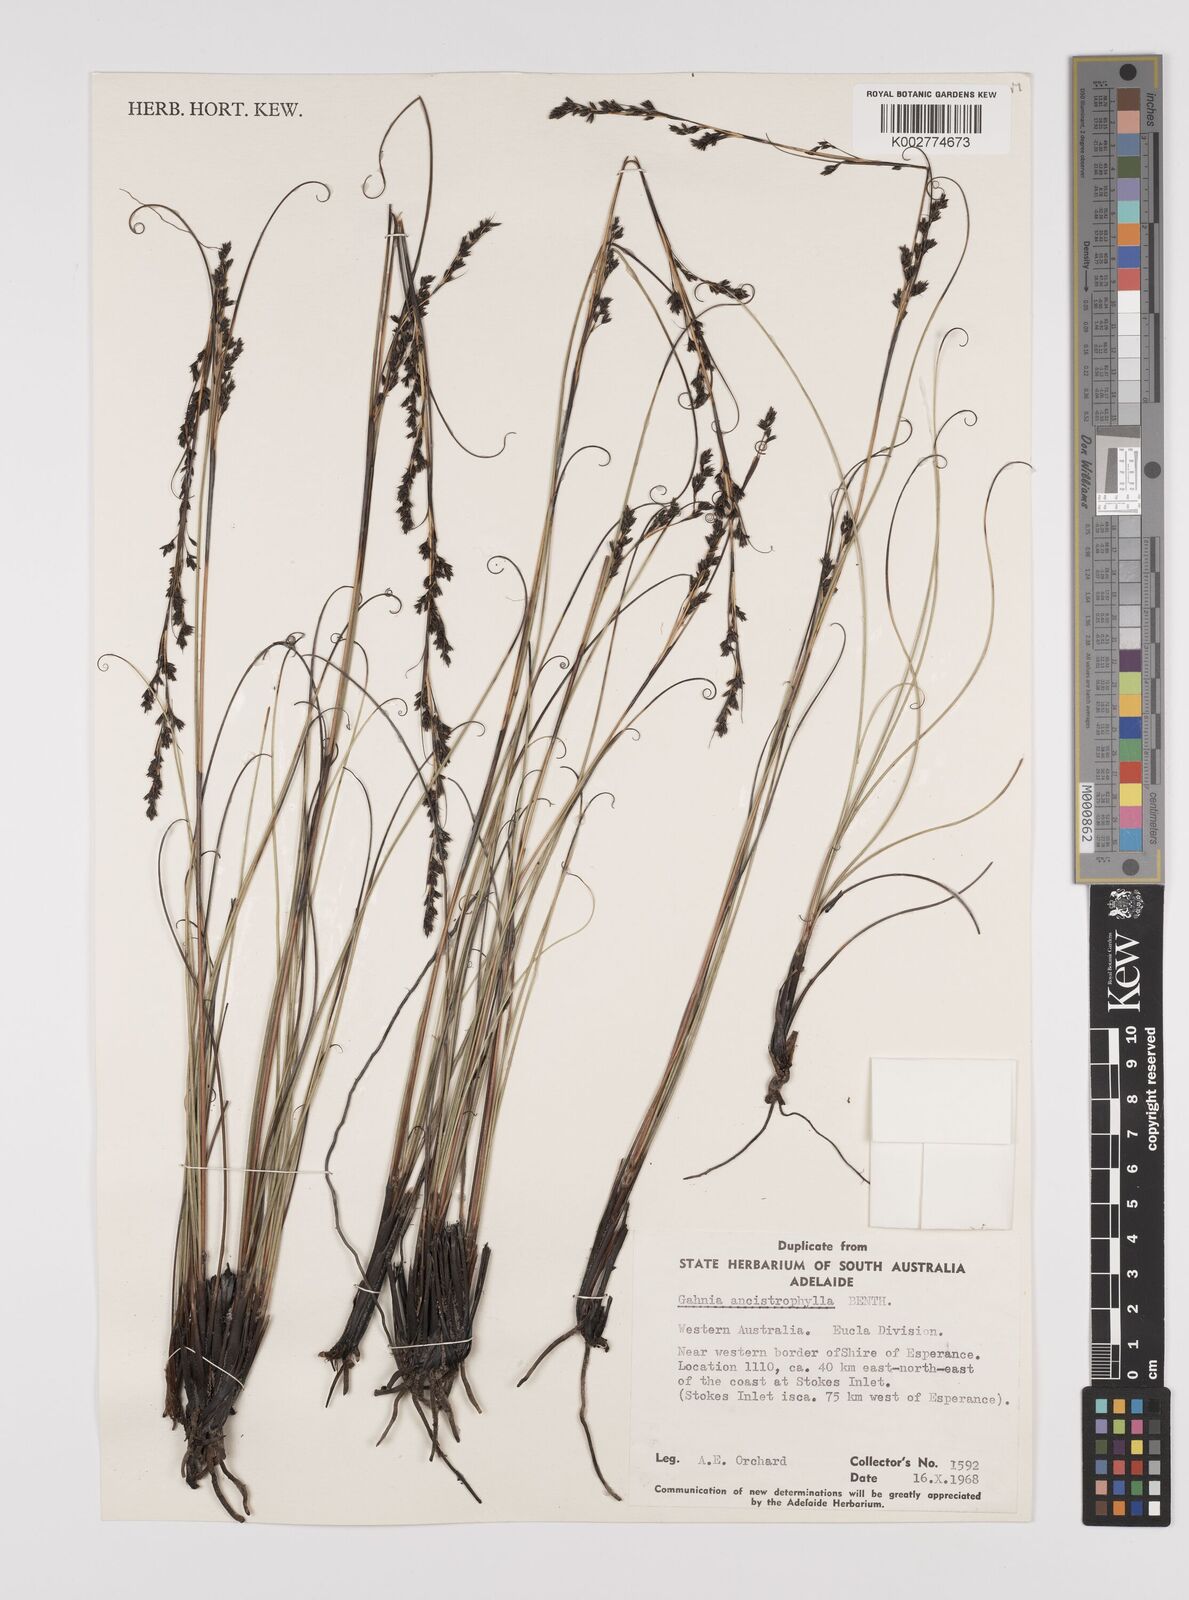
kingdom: Plantae
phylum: Tracheophyta
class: Liliopsida
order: Poales
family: Cyperaceae
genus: Gahnia
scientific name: Gahnia ancistrophylla
